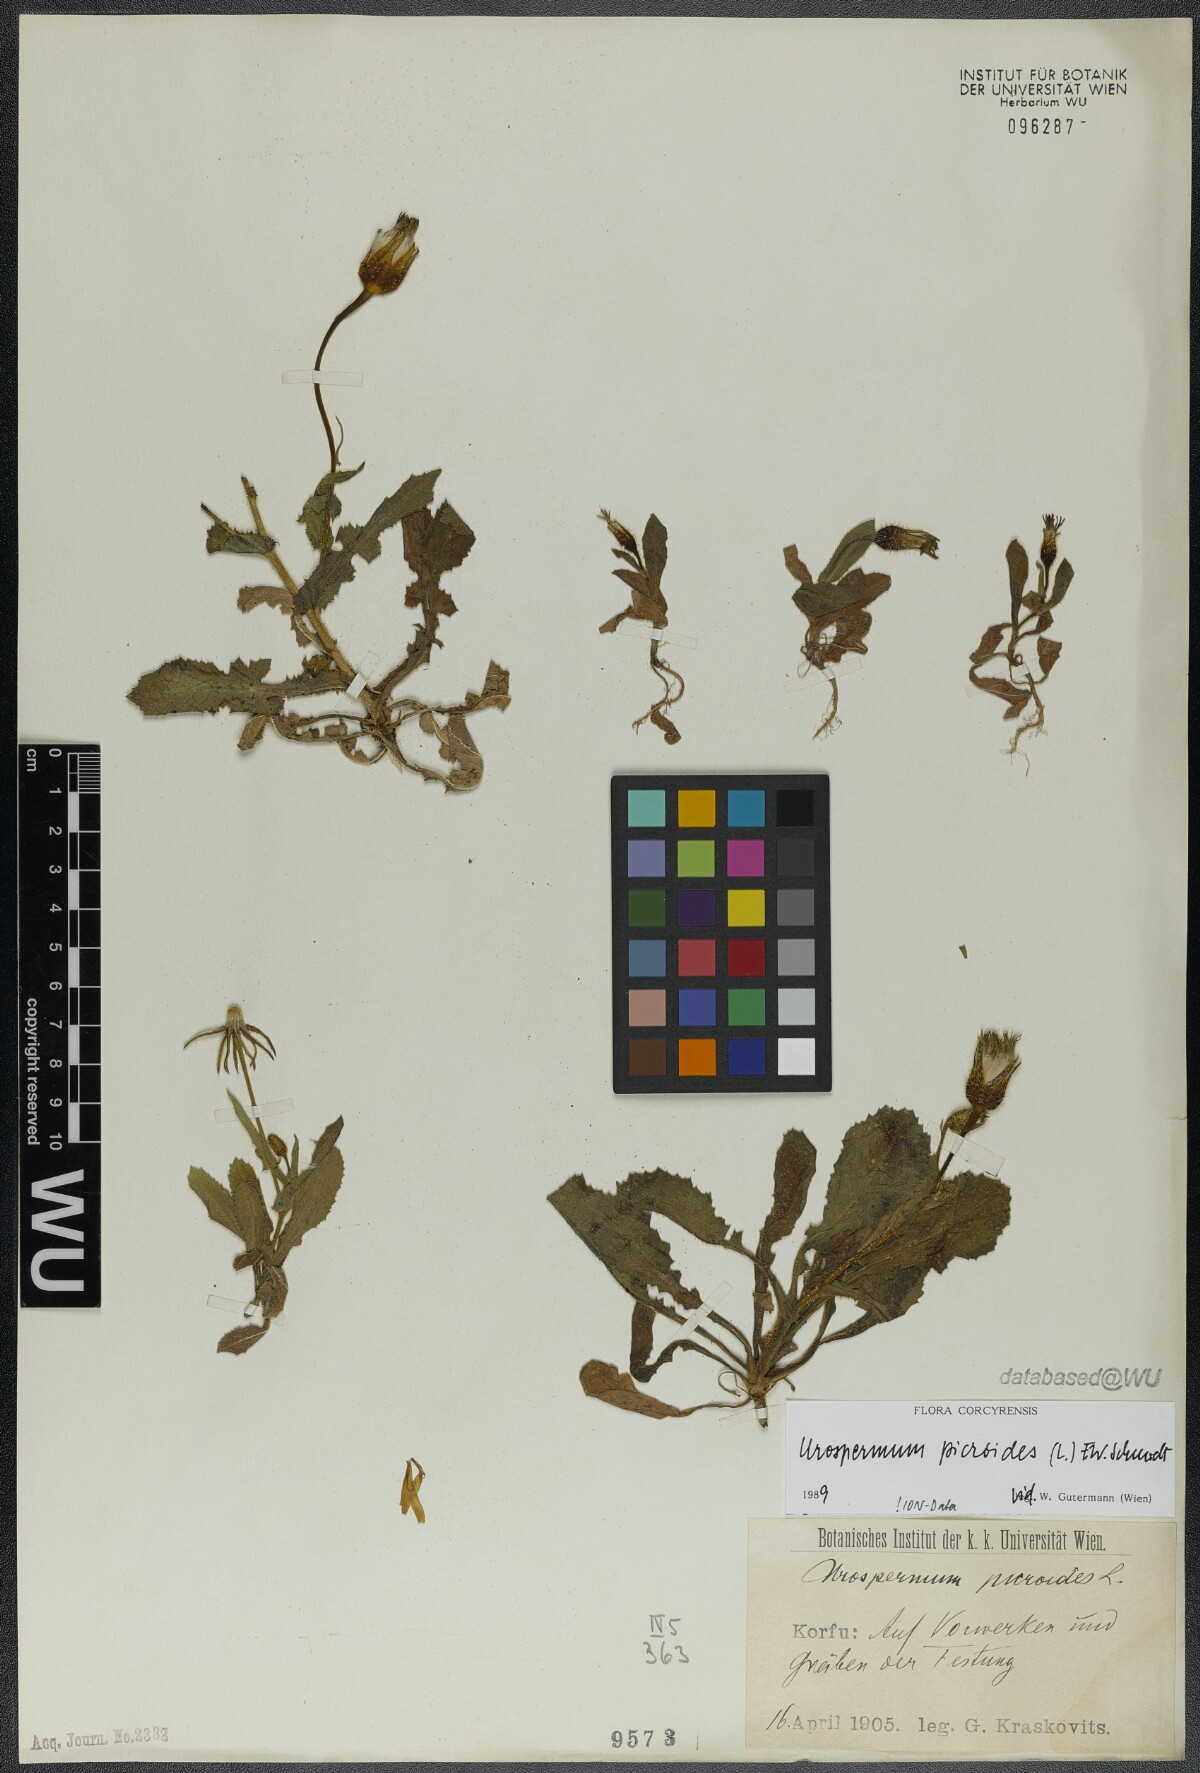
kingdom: Plantae
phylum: Tracheophyta
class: Magnoliopsida
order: Asterales
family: Asteraceae
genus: Urospermum
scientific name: Urospermum picroides
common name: False hawkbit
